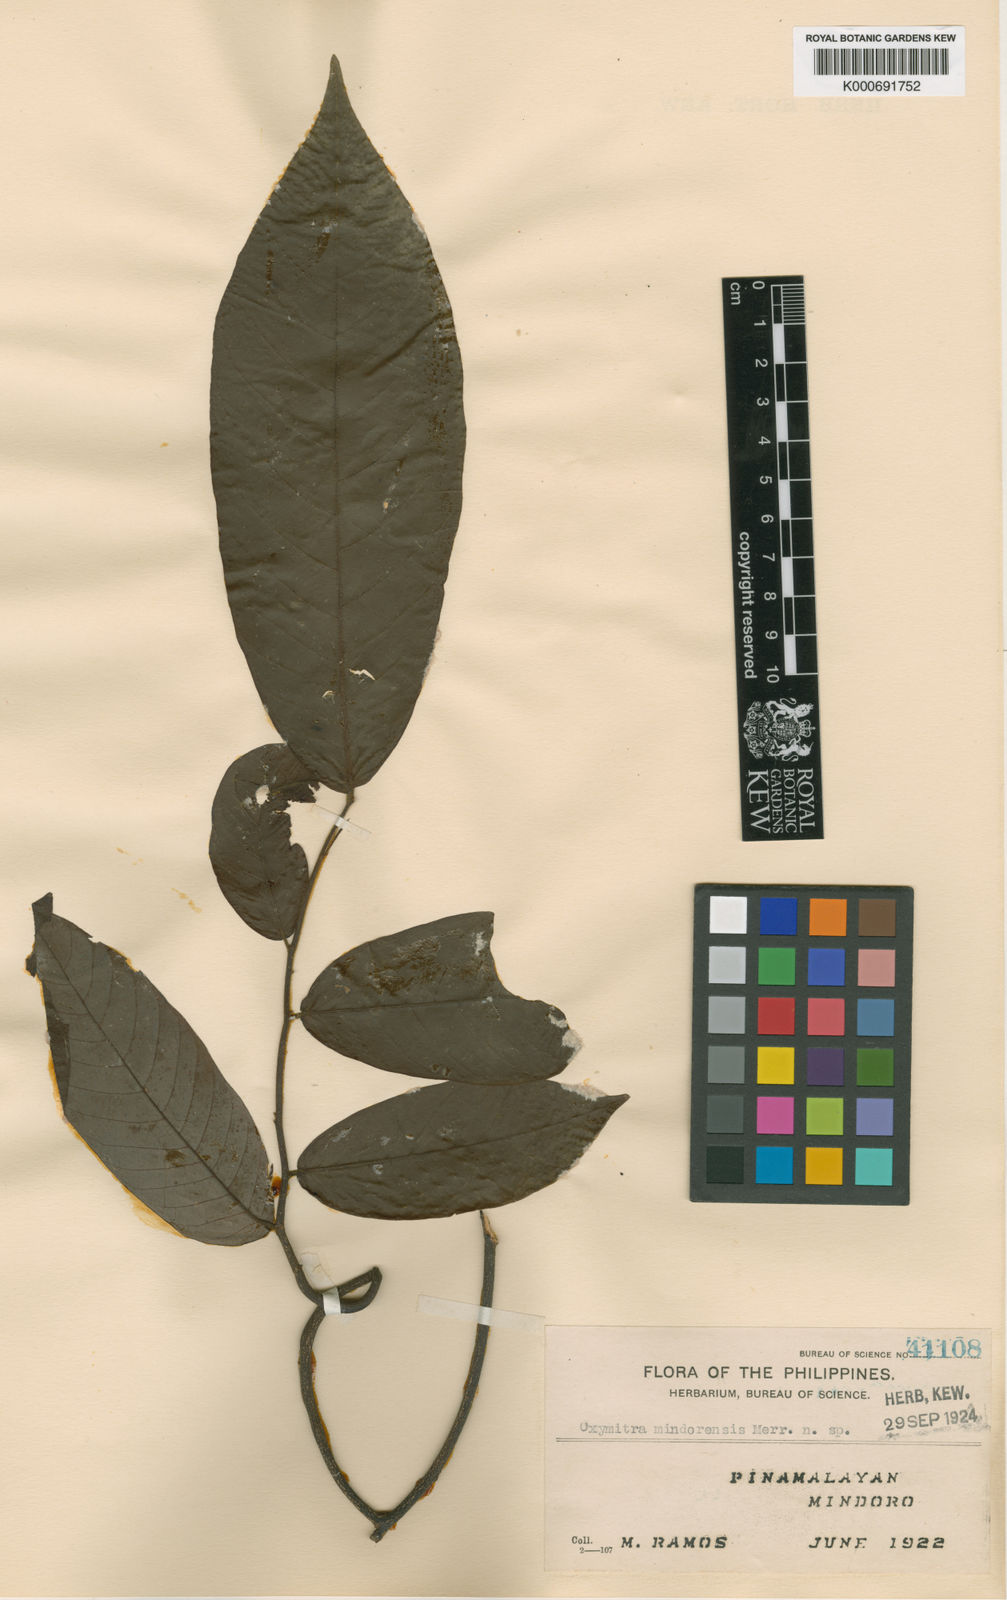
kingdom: Plantae
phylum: Tracheophyta
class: Magnoliopsida
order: Magnoliales
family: Annonaceae
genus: Friesodielsia
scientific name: Friesodielsia mindorensis
